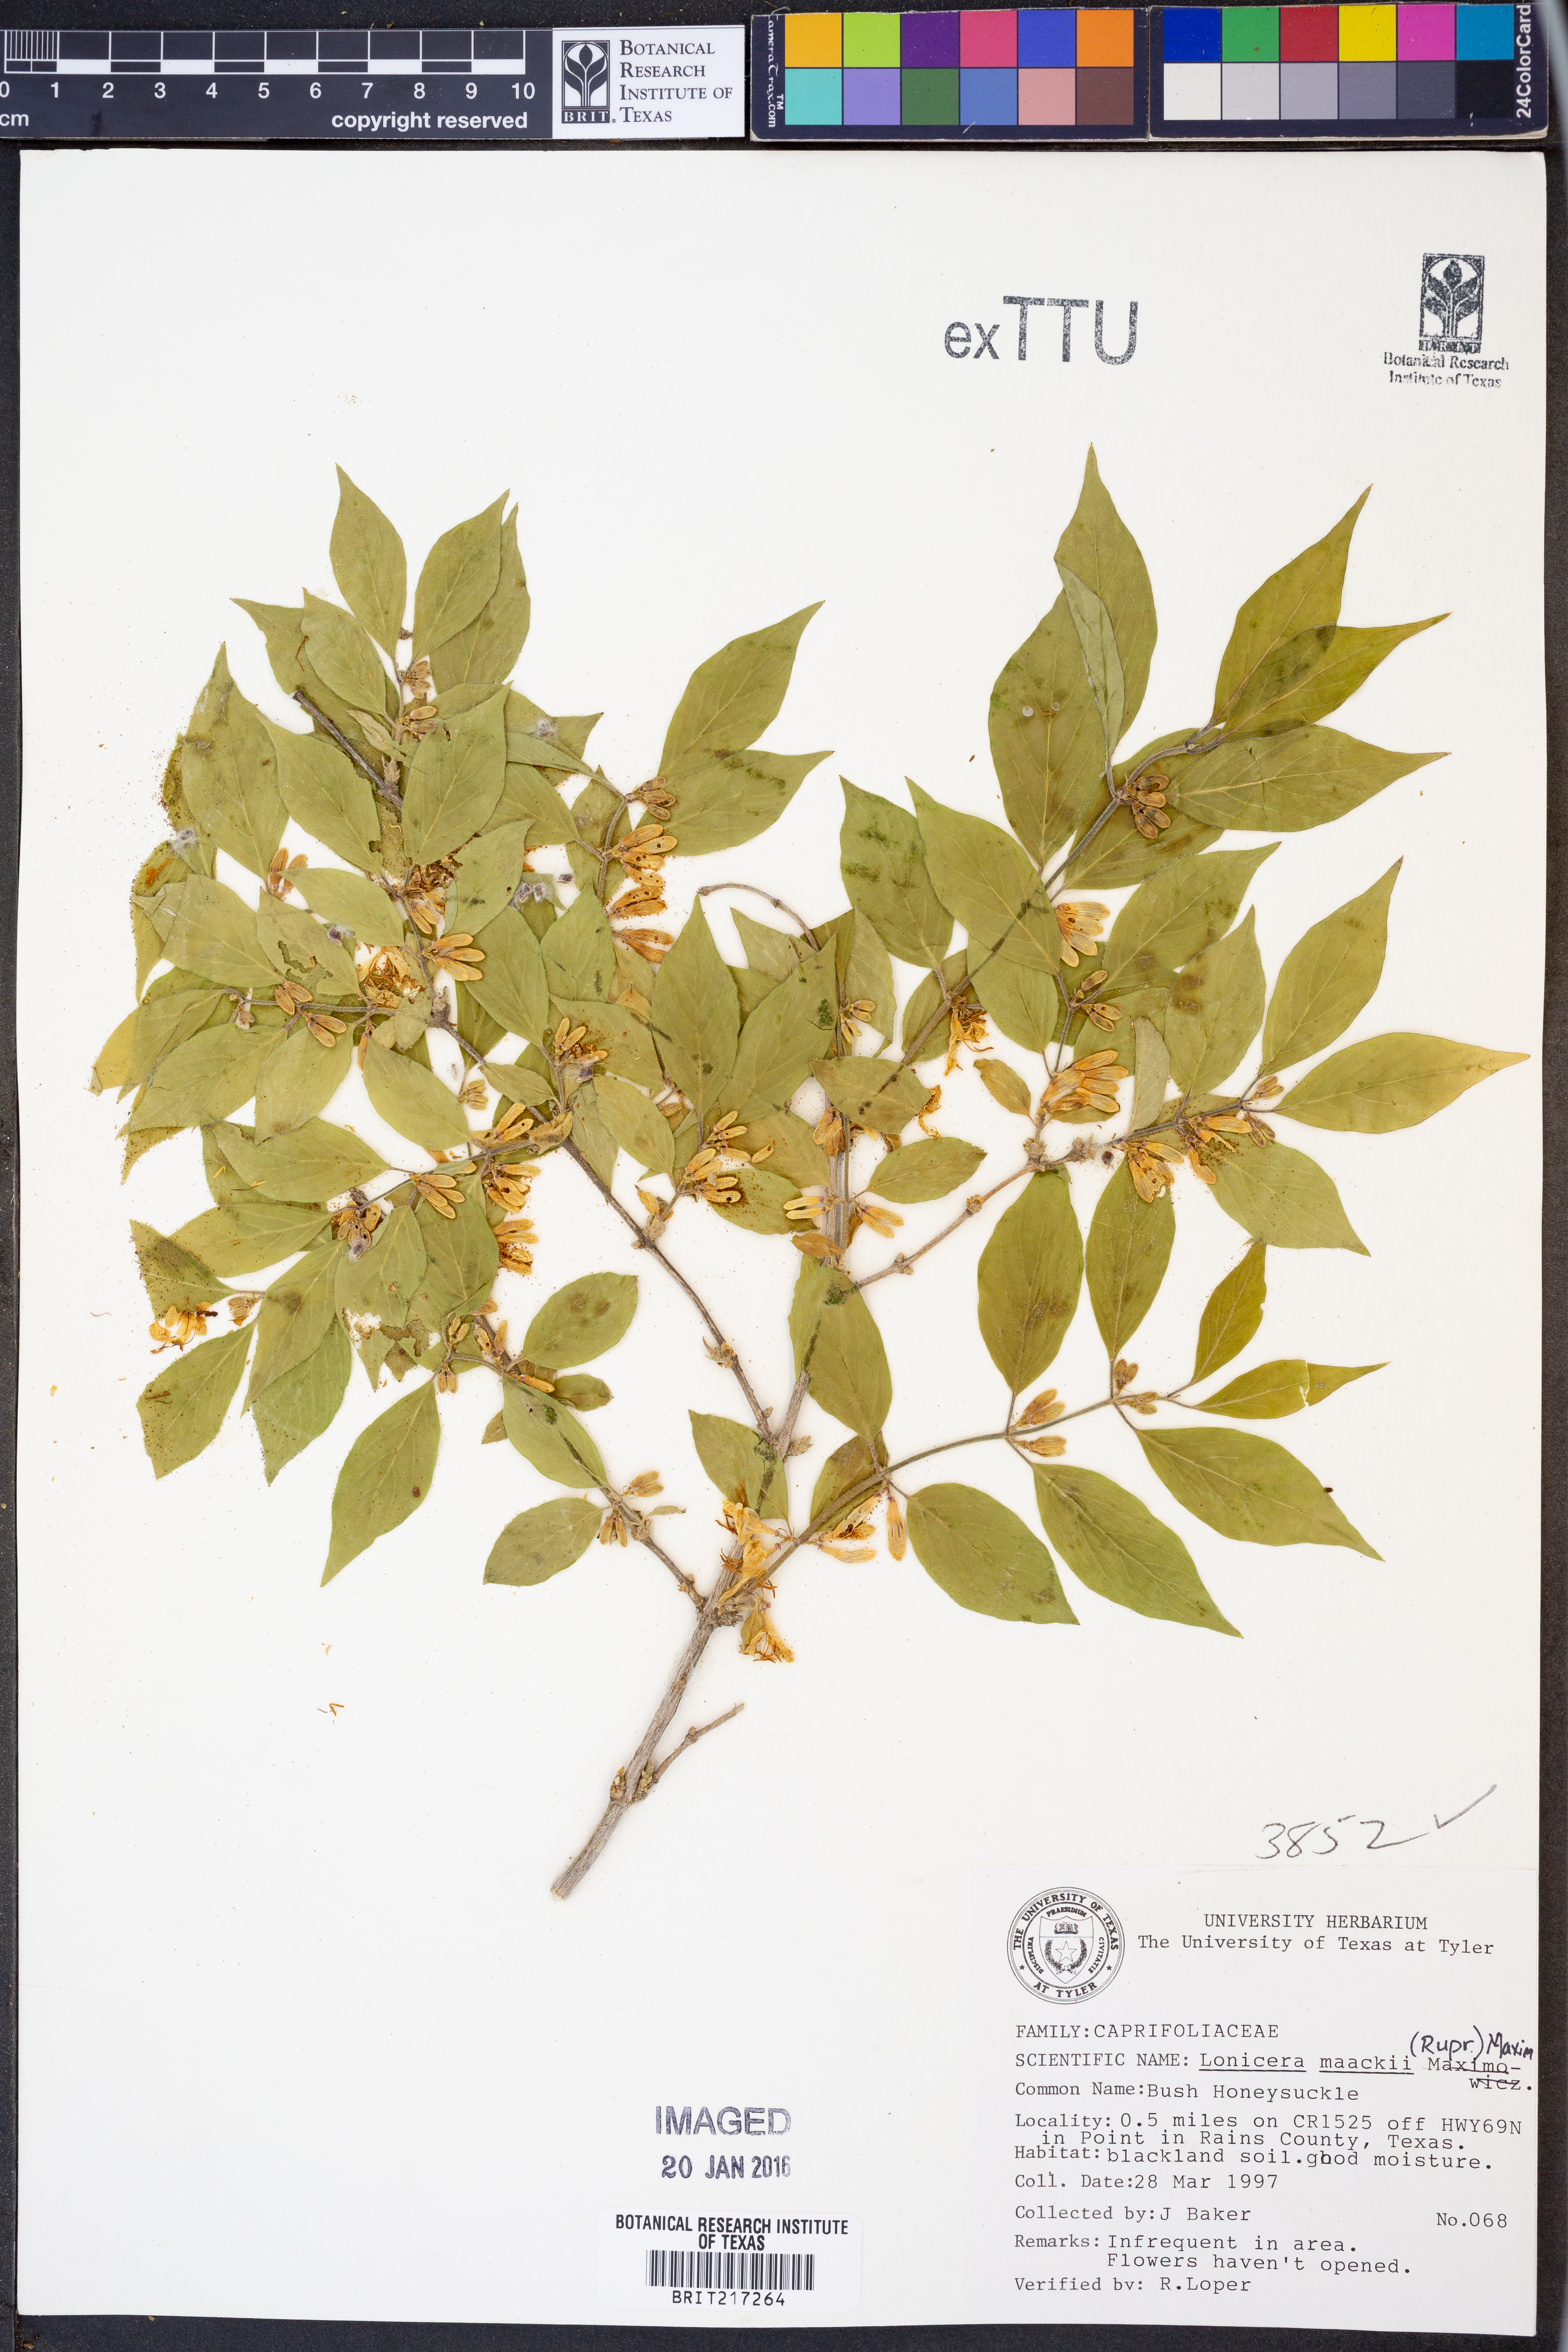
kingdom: Plantae
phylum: Tracheophyta
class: Magnoliopsida
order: Dipsacales
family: Caprifoliaceae
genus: Lonicera
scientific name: Lonicera maackii
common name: Amur honeysuckle
